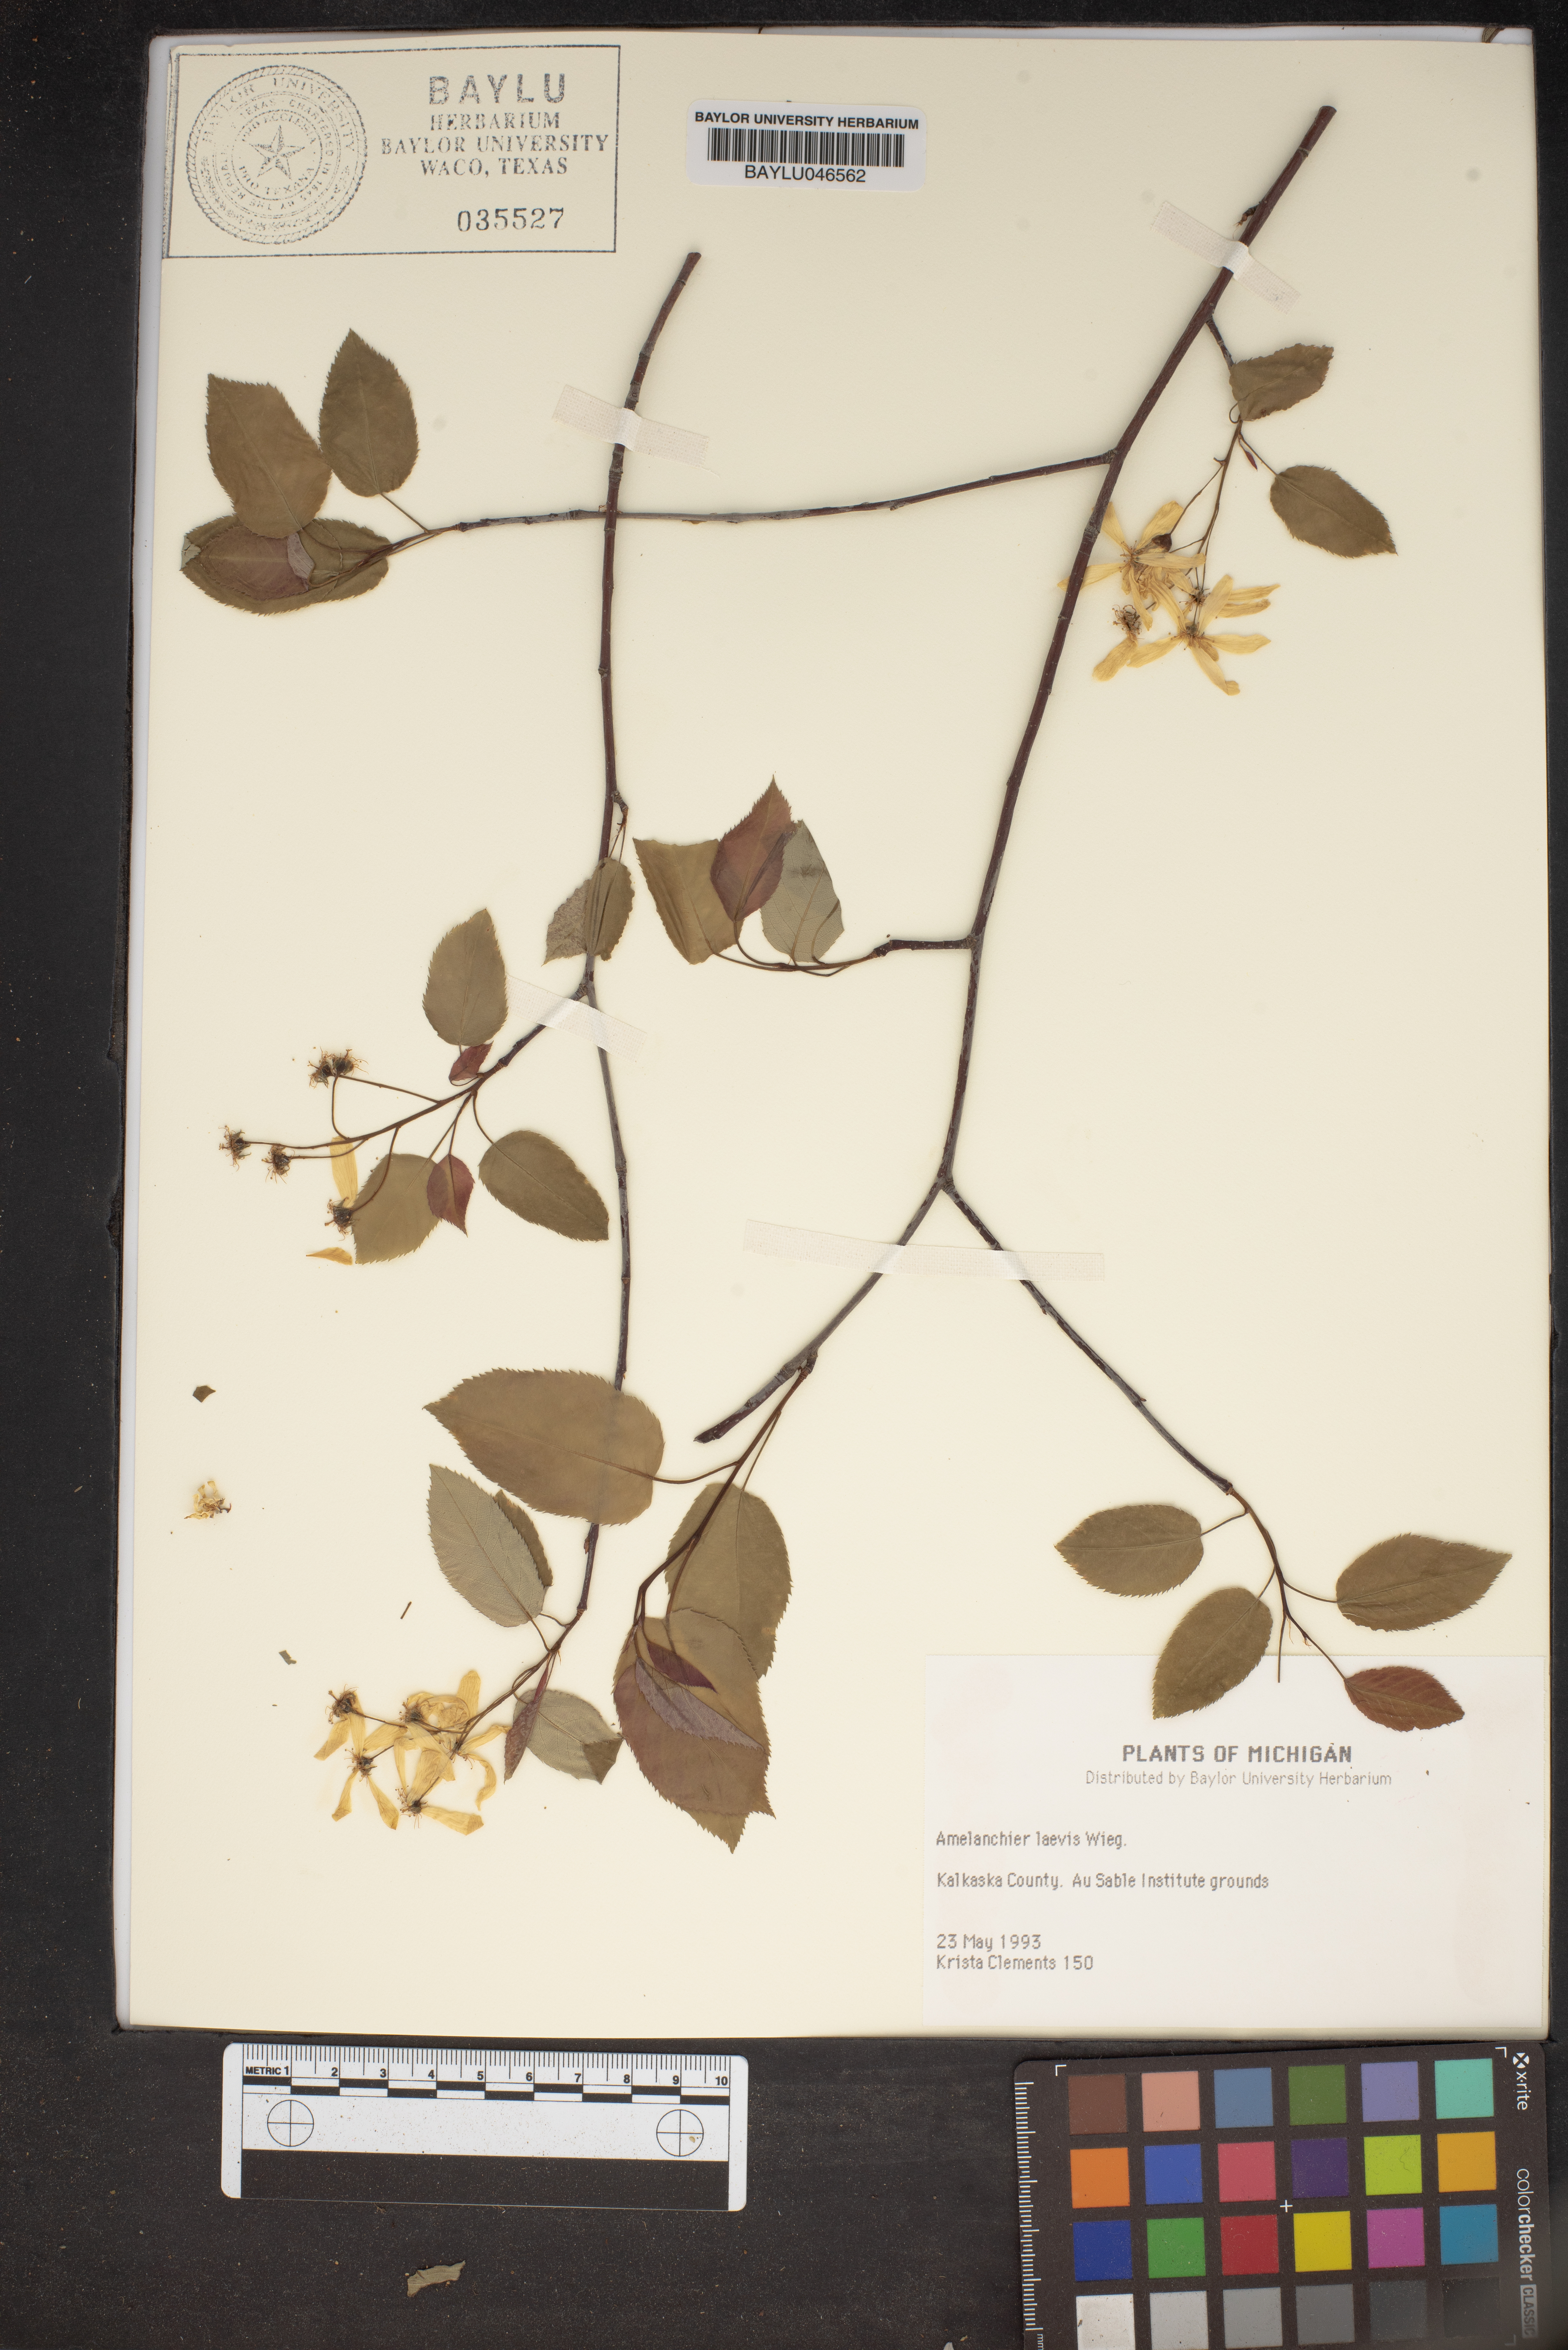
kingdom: Plantae
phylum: Tracheophyta
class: Magnoliopsida
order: Rosales
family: Rosaceae
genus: Amelanchier
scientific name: Amelanchier laevis
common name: Allegheny serviceberry
